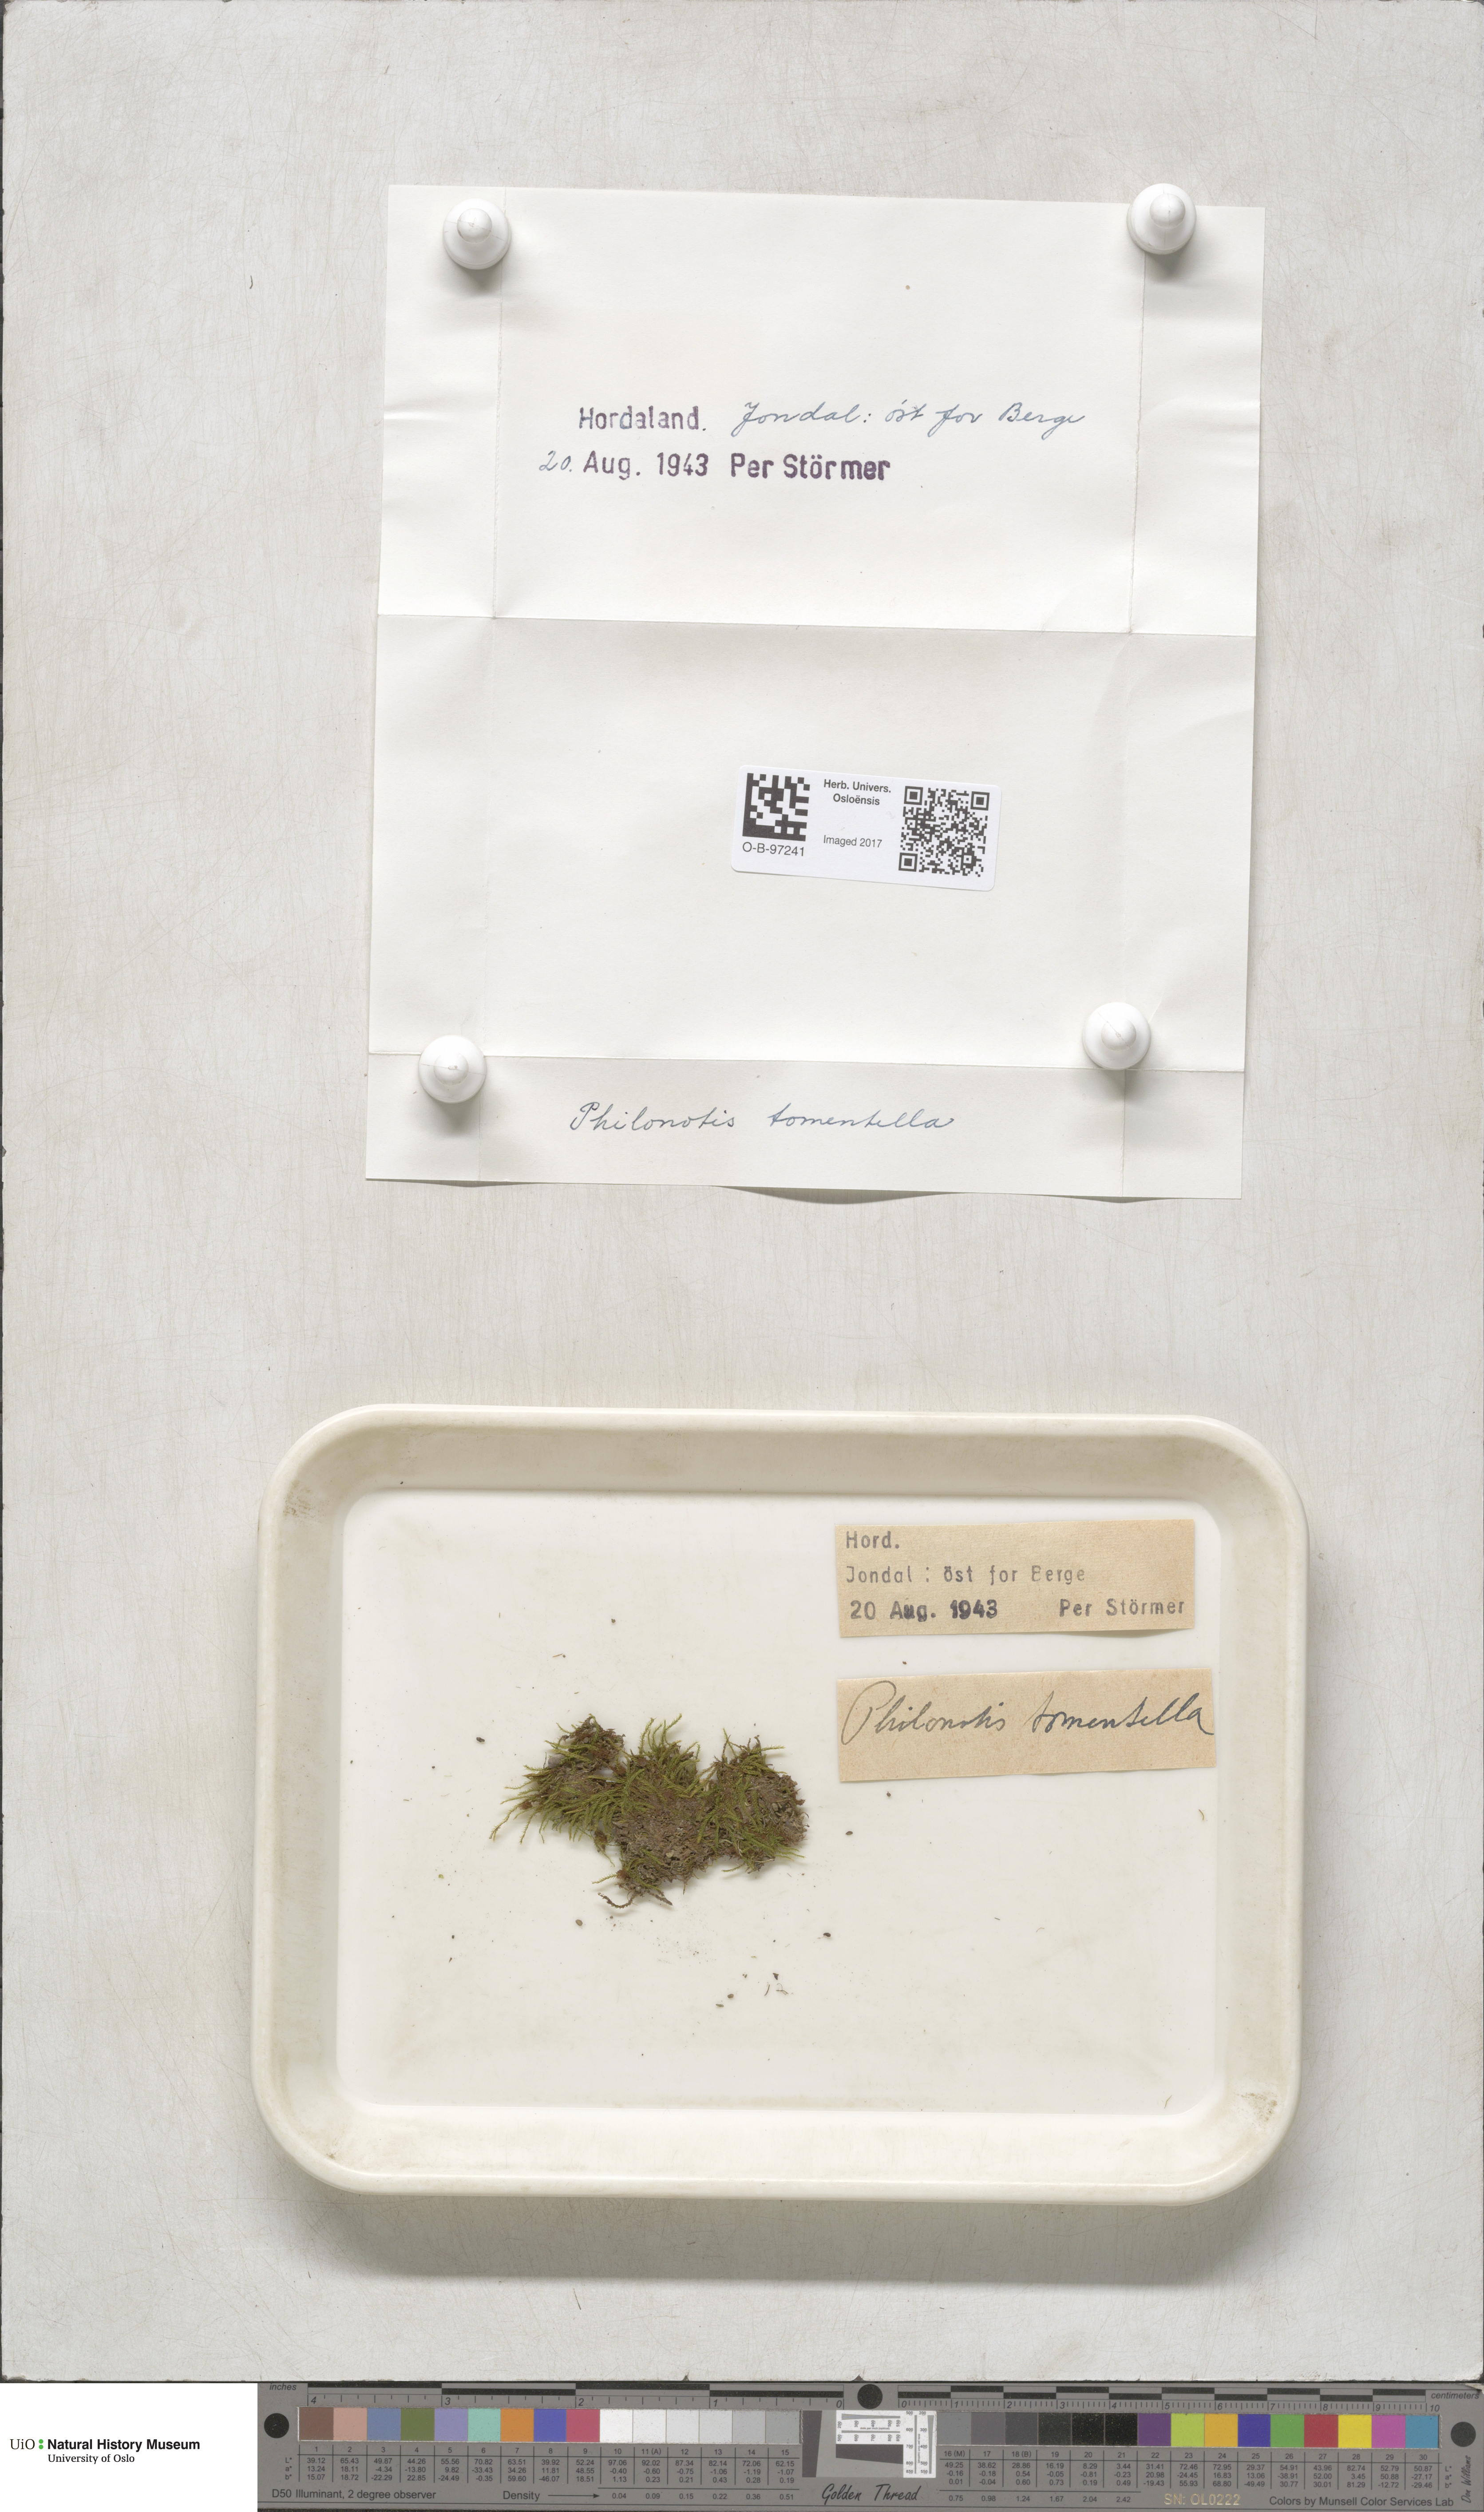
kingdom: Plantae
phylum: Bryophyta
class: Bryopsida
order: Bartramiales
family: Bartramiaceae
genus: Philonotis
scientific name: Philonotis tomentella
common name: Woolly apple moss
